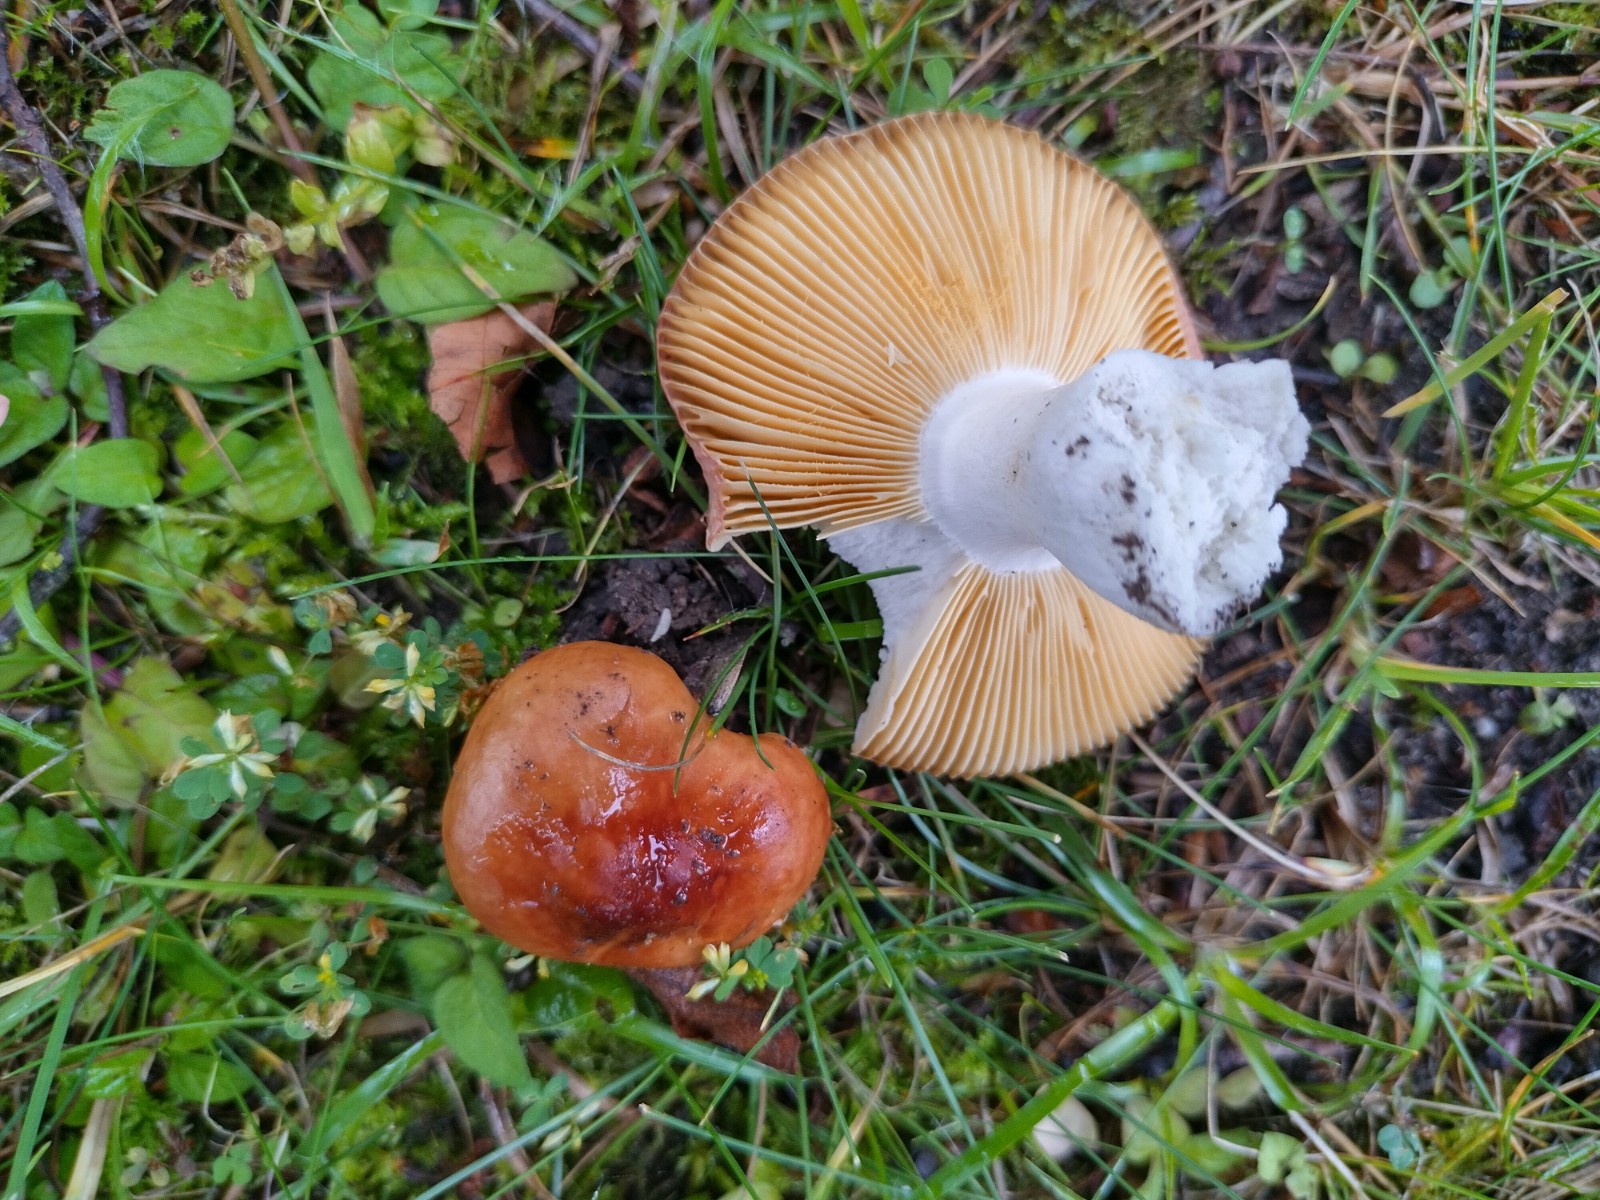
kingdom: Fungi
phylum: Basidiomycota
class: Agaricomycetes
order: Russulales
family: Russulaceae
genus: Russula
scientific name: Russula
